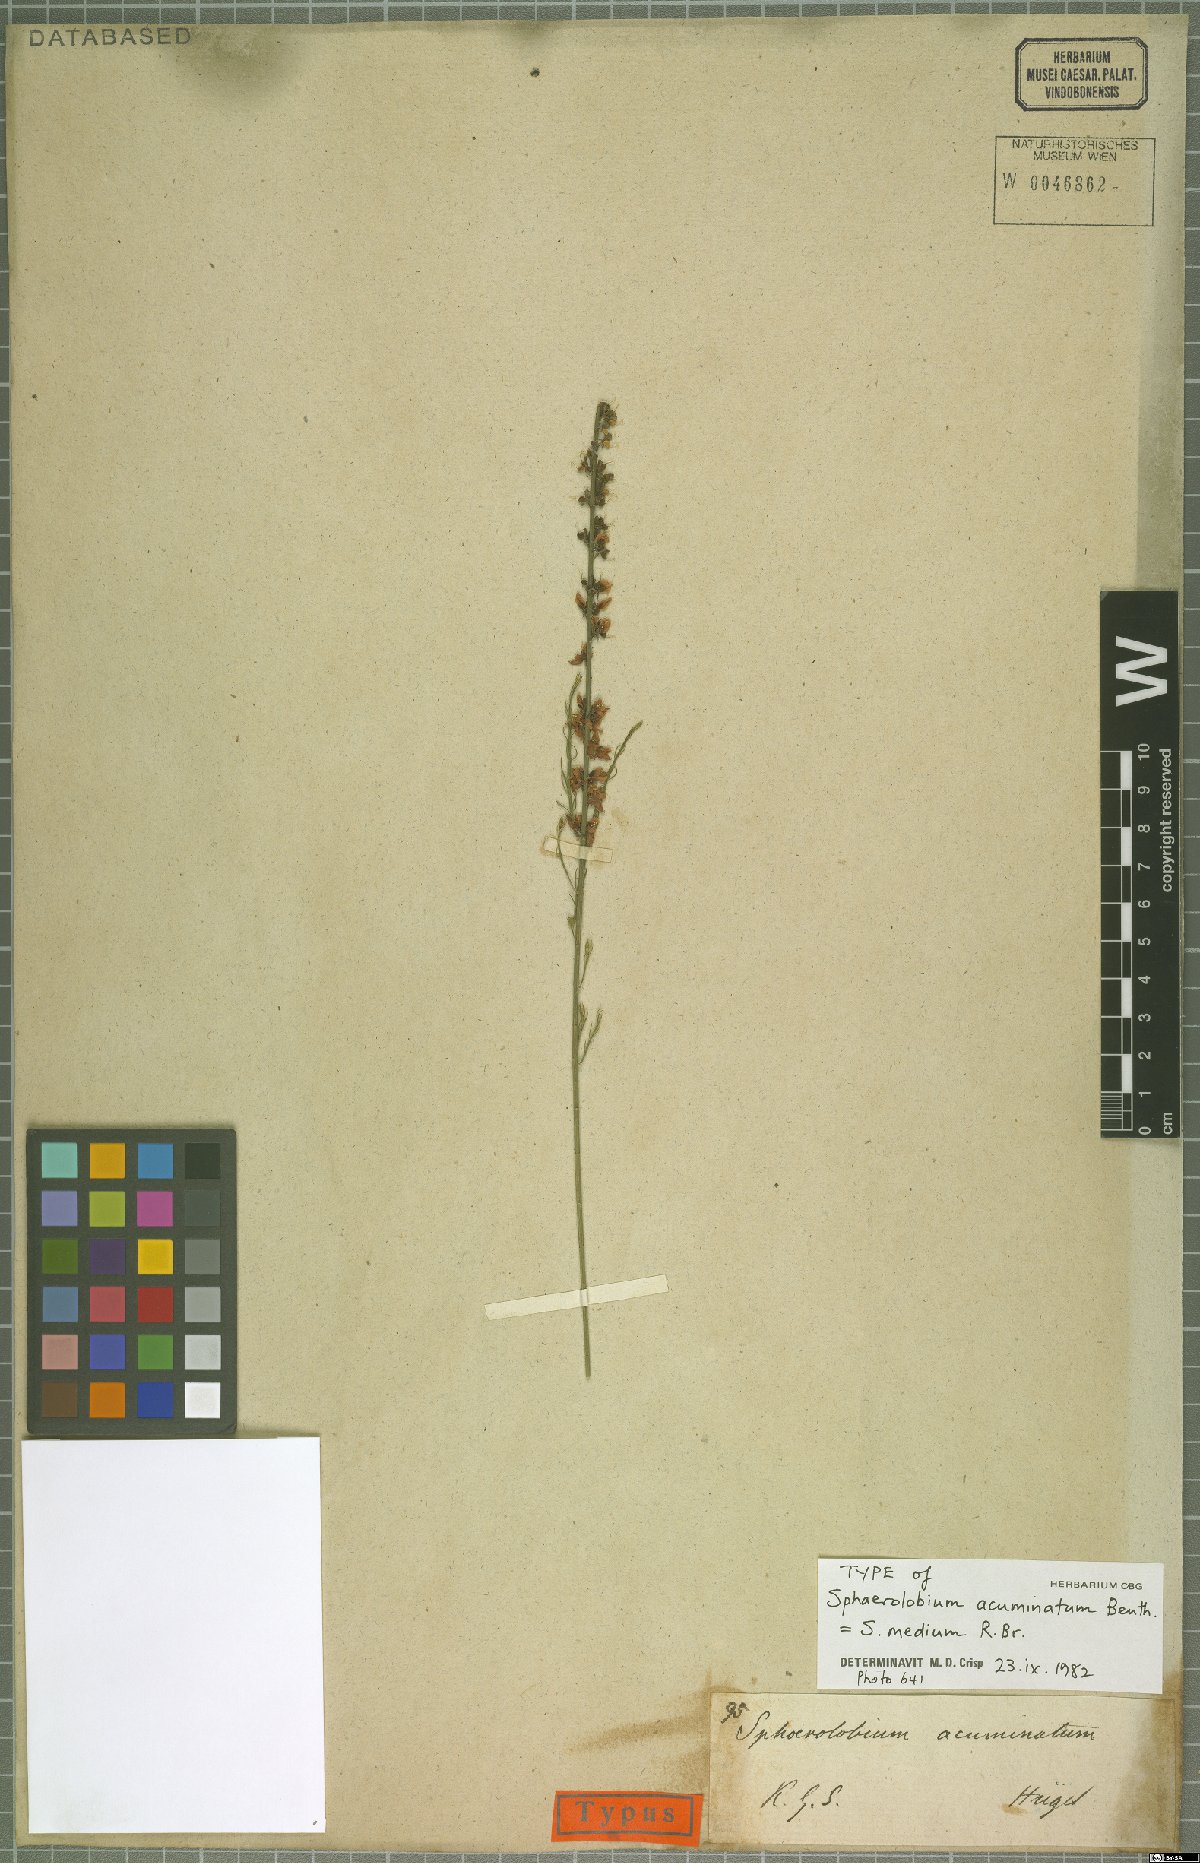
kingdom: Plantae
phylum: Tracheophyta
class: Magnoliopsida
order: Fabales
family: Fabaceae
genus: Sphaerolobium
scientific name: Sphaerolobium medium
